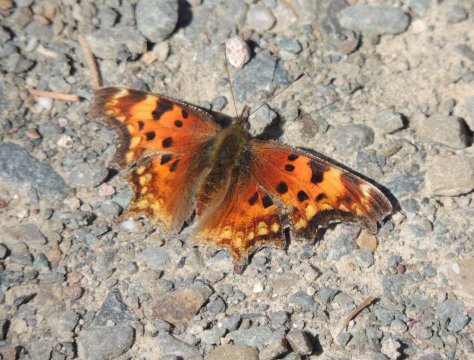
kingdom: Animalia
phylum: Arthropoda
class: Insecta
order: Lepidoptera
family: Nymphalidae
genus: Polygonia
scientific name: Polygonia gracilis
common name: Hoary Comma
